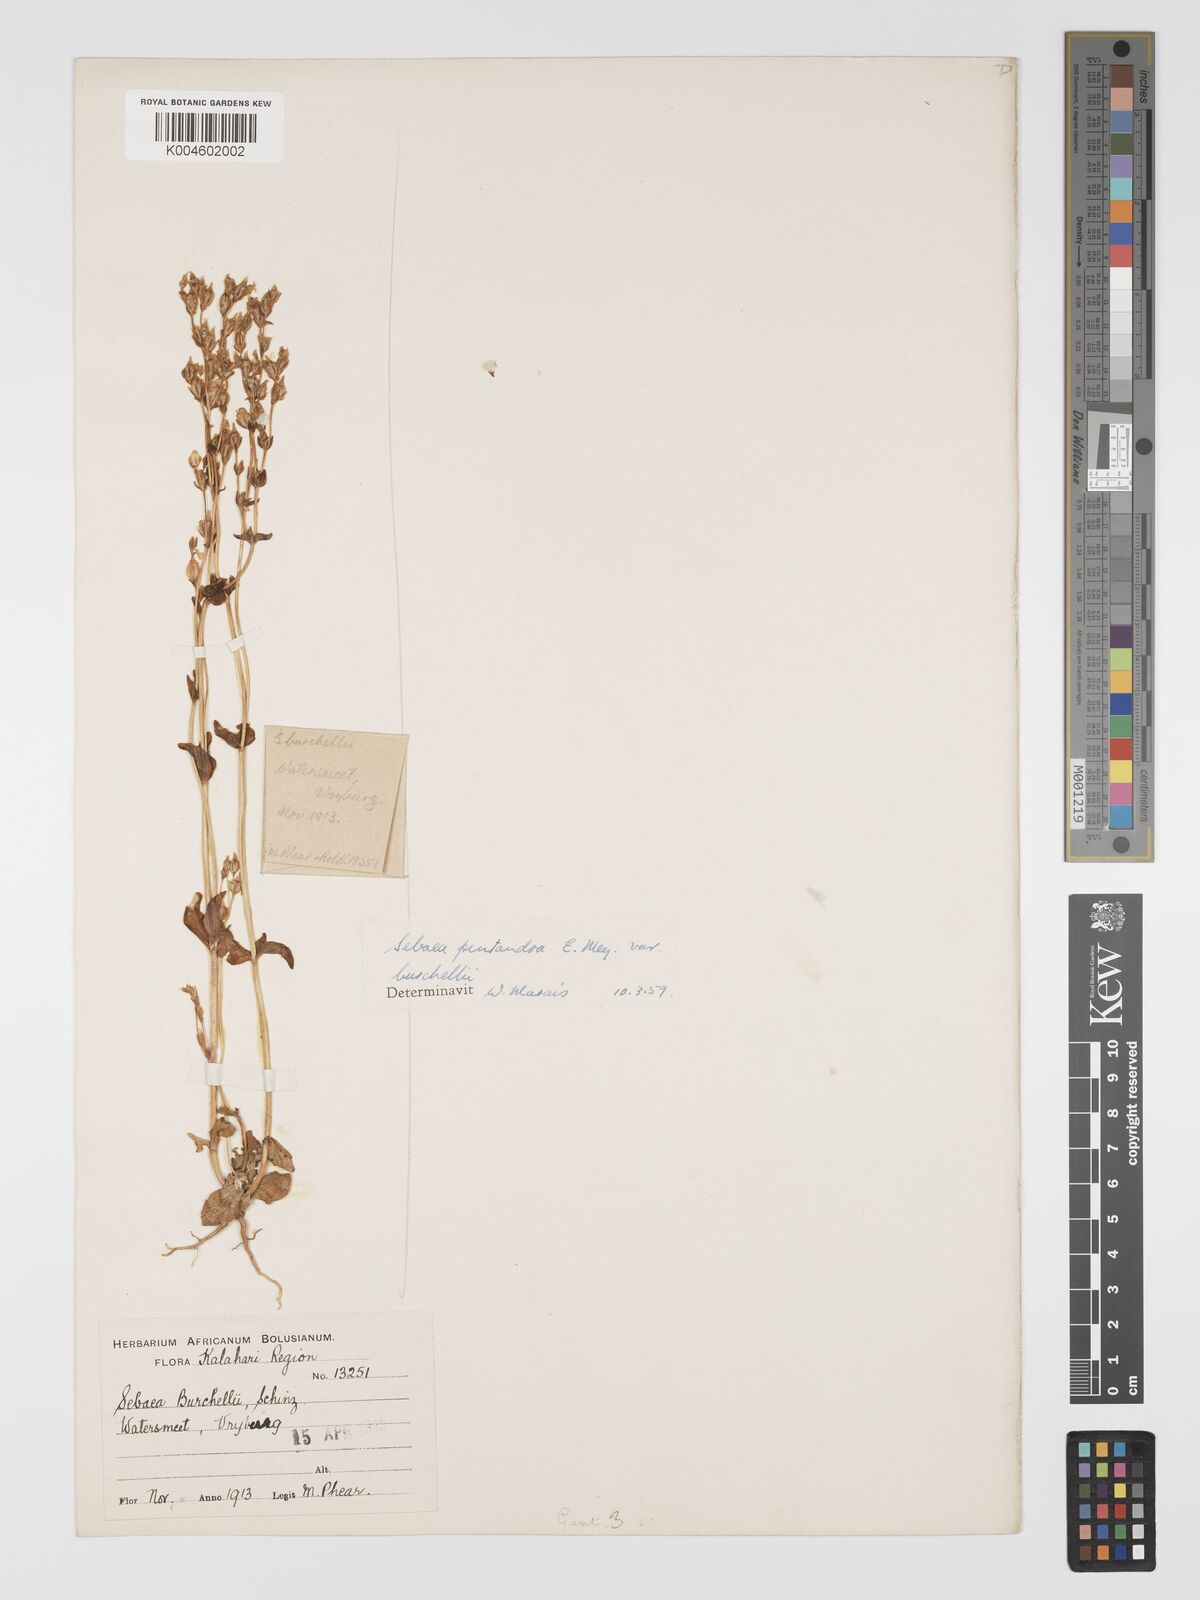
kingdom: Plantae
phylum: Tracheophyta
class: Magnoliopsida
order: Gentianales
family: Gentianaceae
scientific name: Gentianaceae
